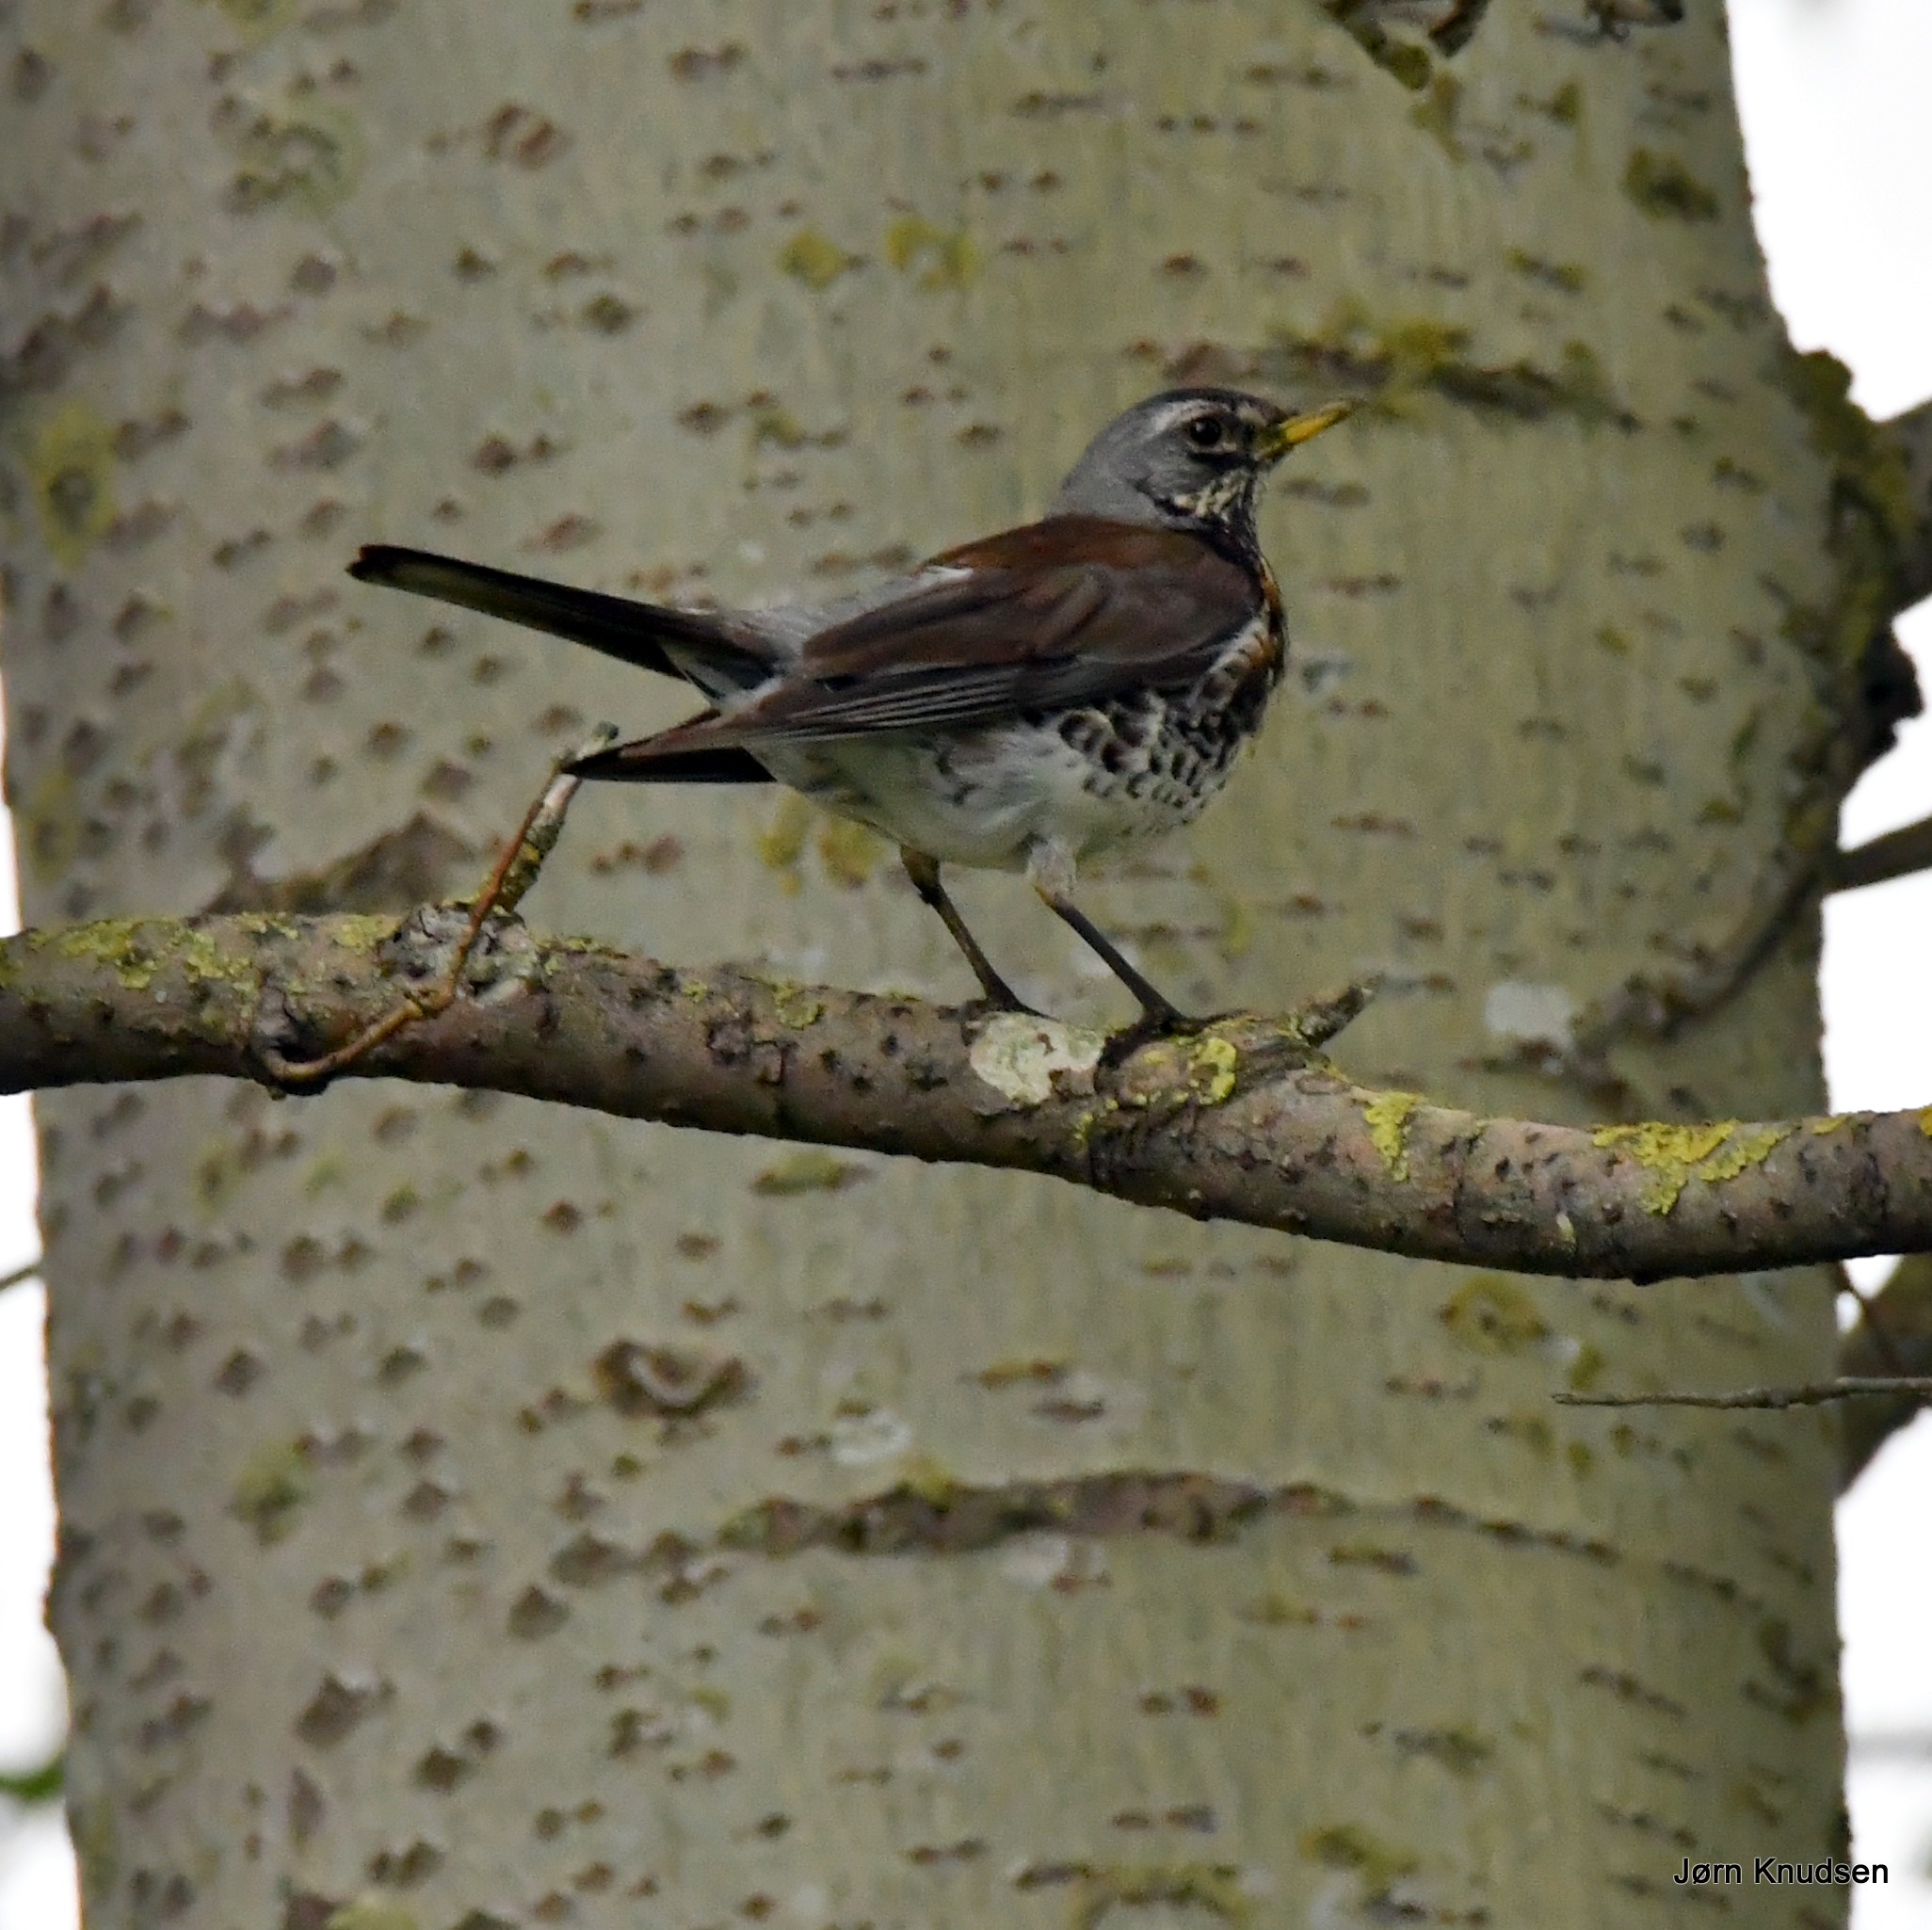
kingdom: Animalia
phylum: Chordata
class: Aves
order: Passeriformes
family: Turdidae
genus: Turdus
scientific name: Turdus pilaris
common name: Sjagger
